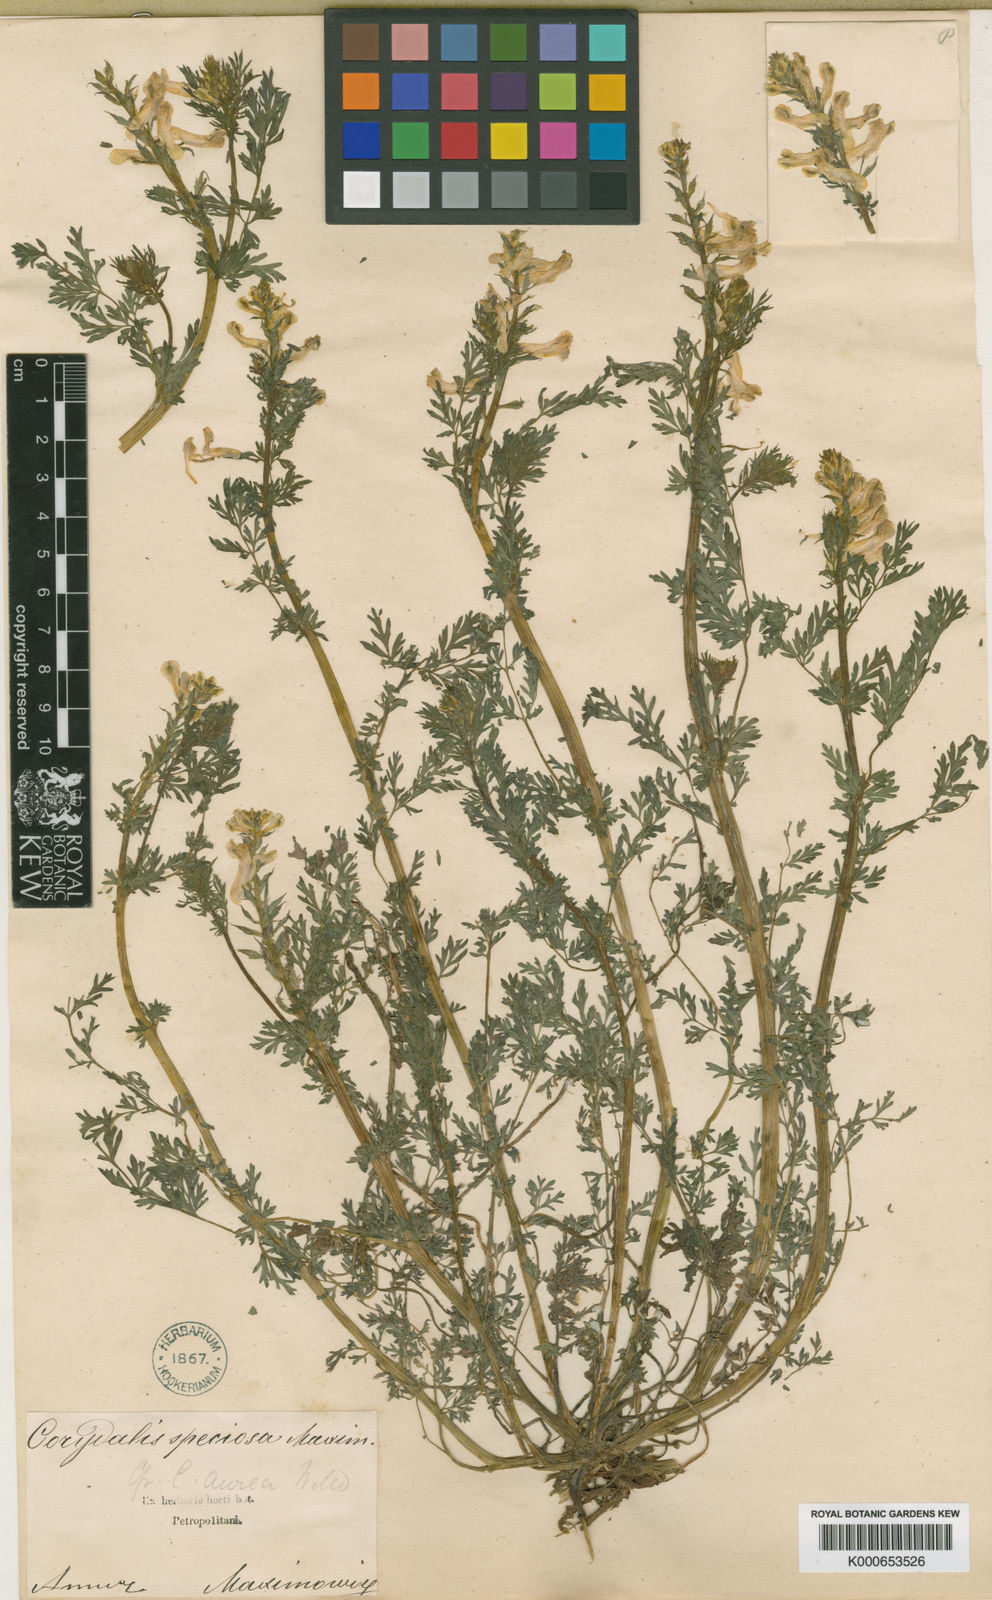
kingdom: Plantae
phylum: Tracheophyta
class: Magnoliopsida
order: Ranunculales
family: Papaveraceae
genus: Corydalis
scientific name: Corydalis speciosa
